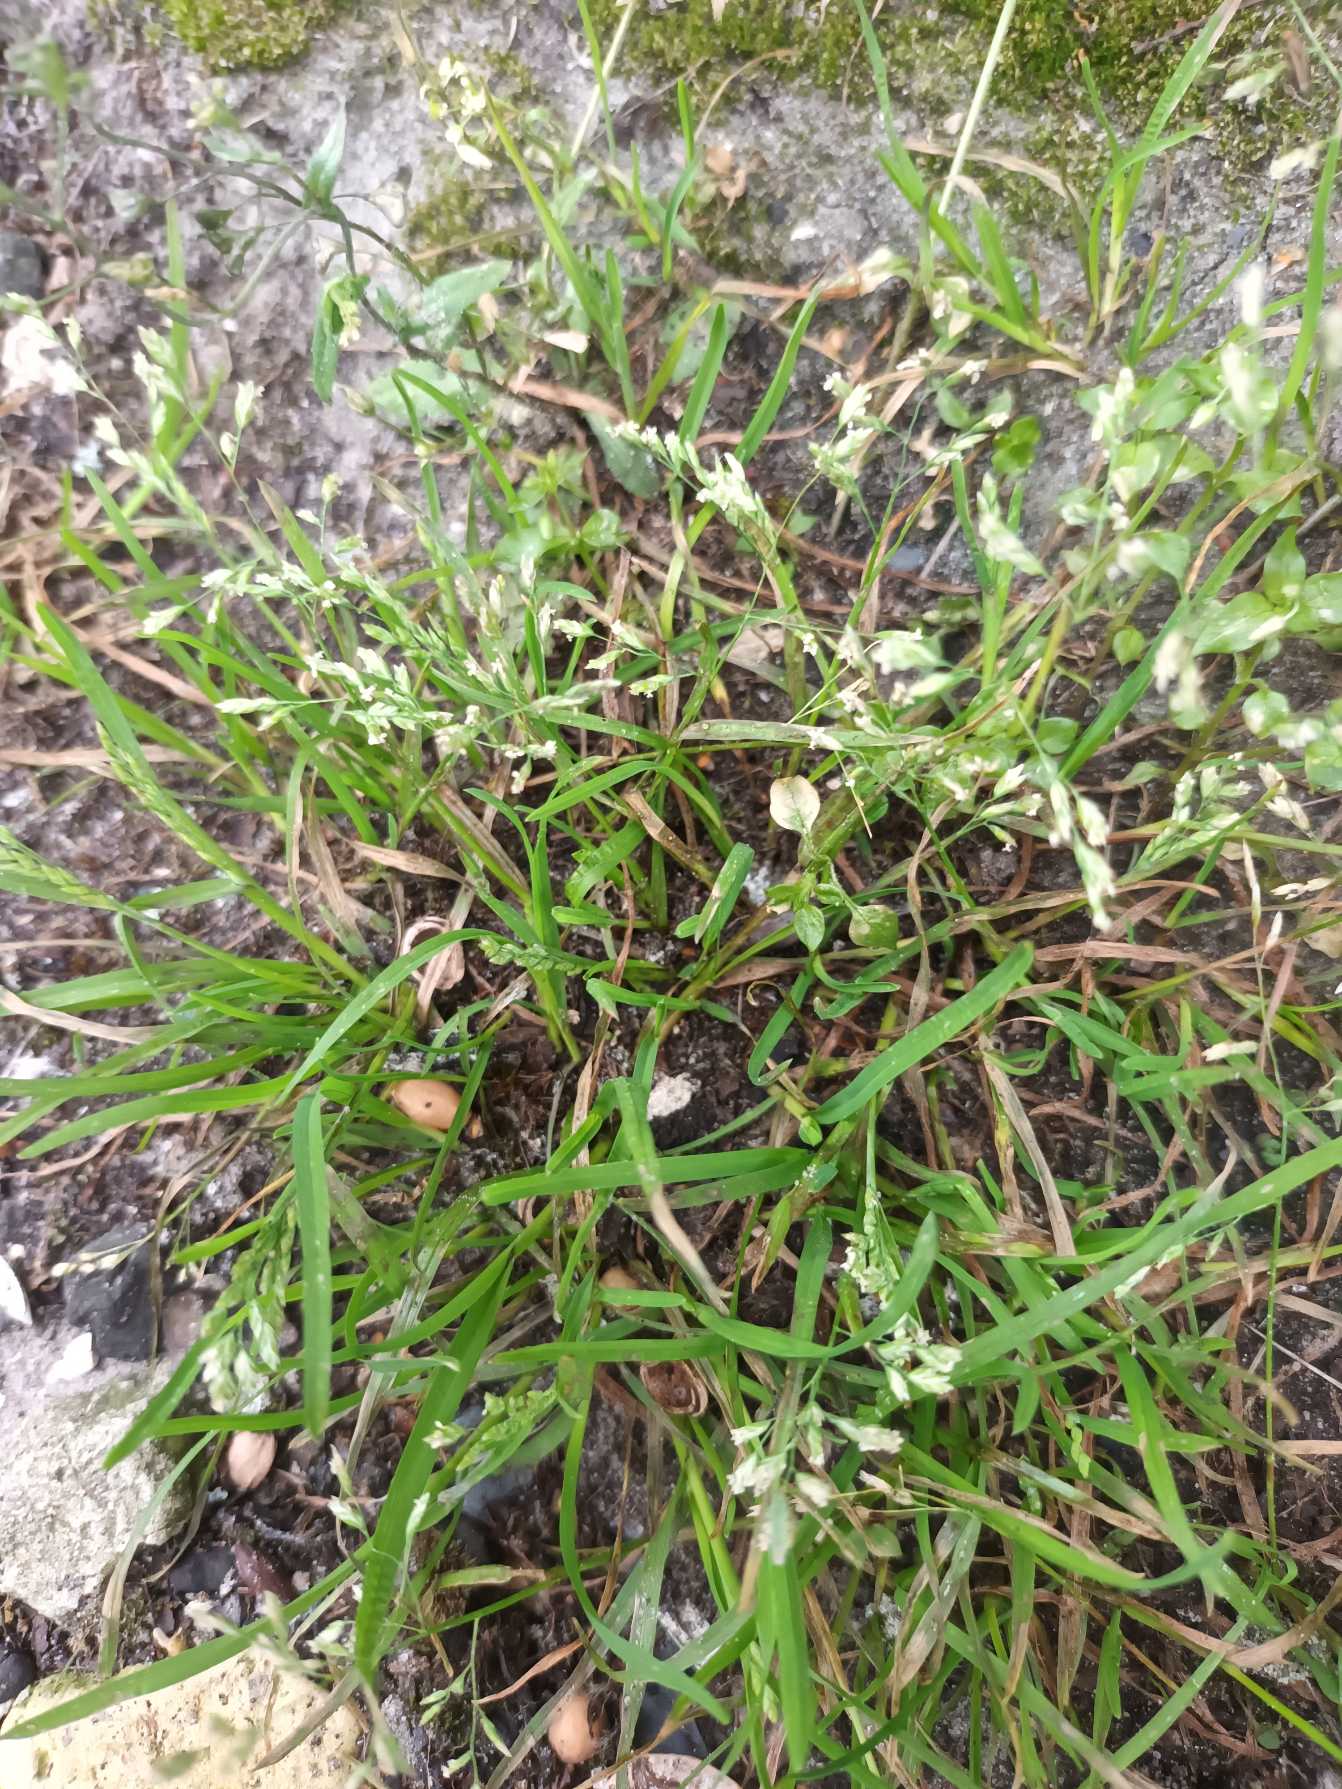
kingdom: Plantae
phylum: Tracheophyta
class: Liliopsida
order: Poales
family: Poaceae
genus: Poa
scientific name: Poa annua
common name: Enårig rapgræs
